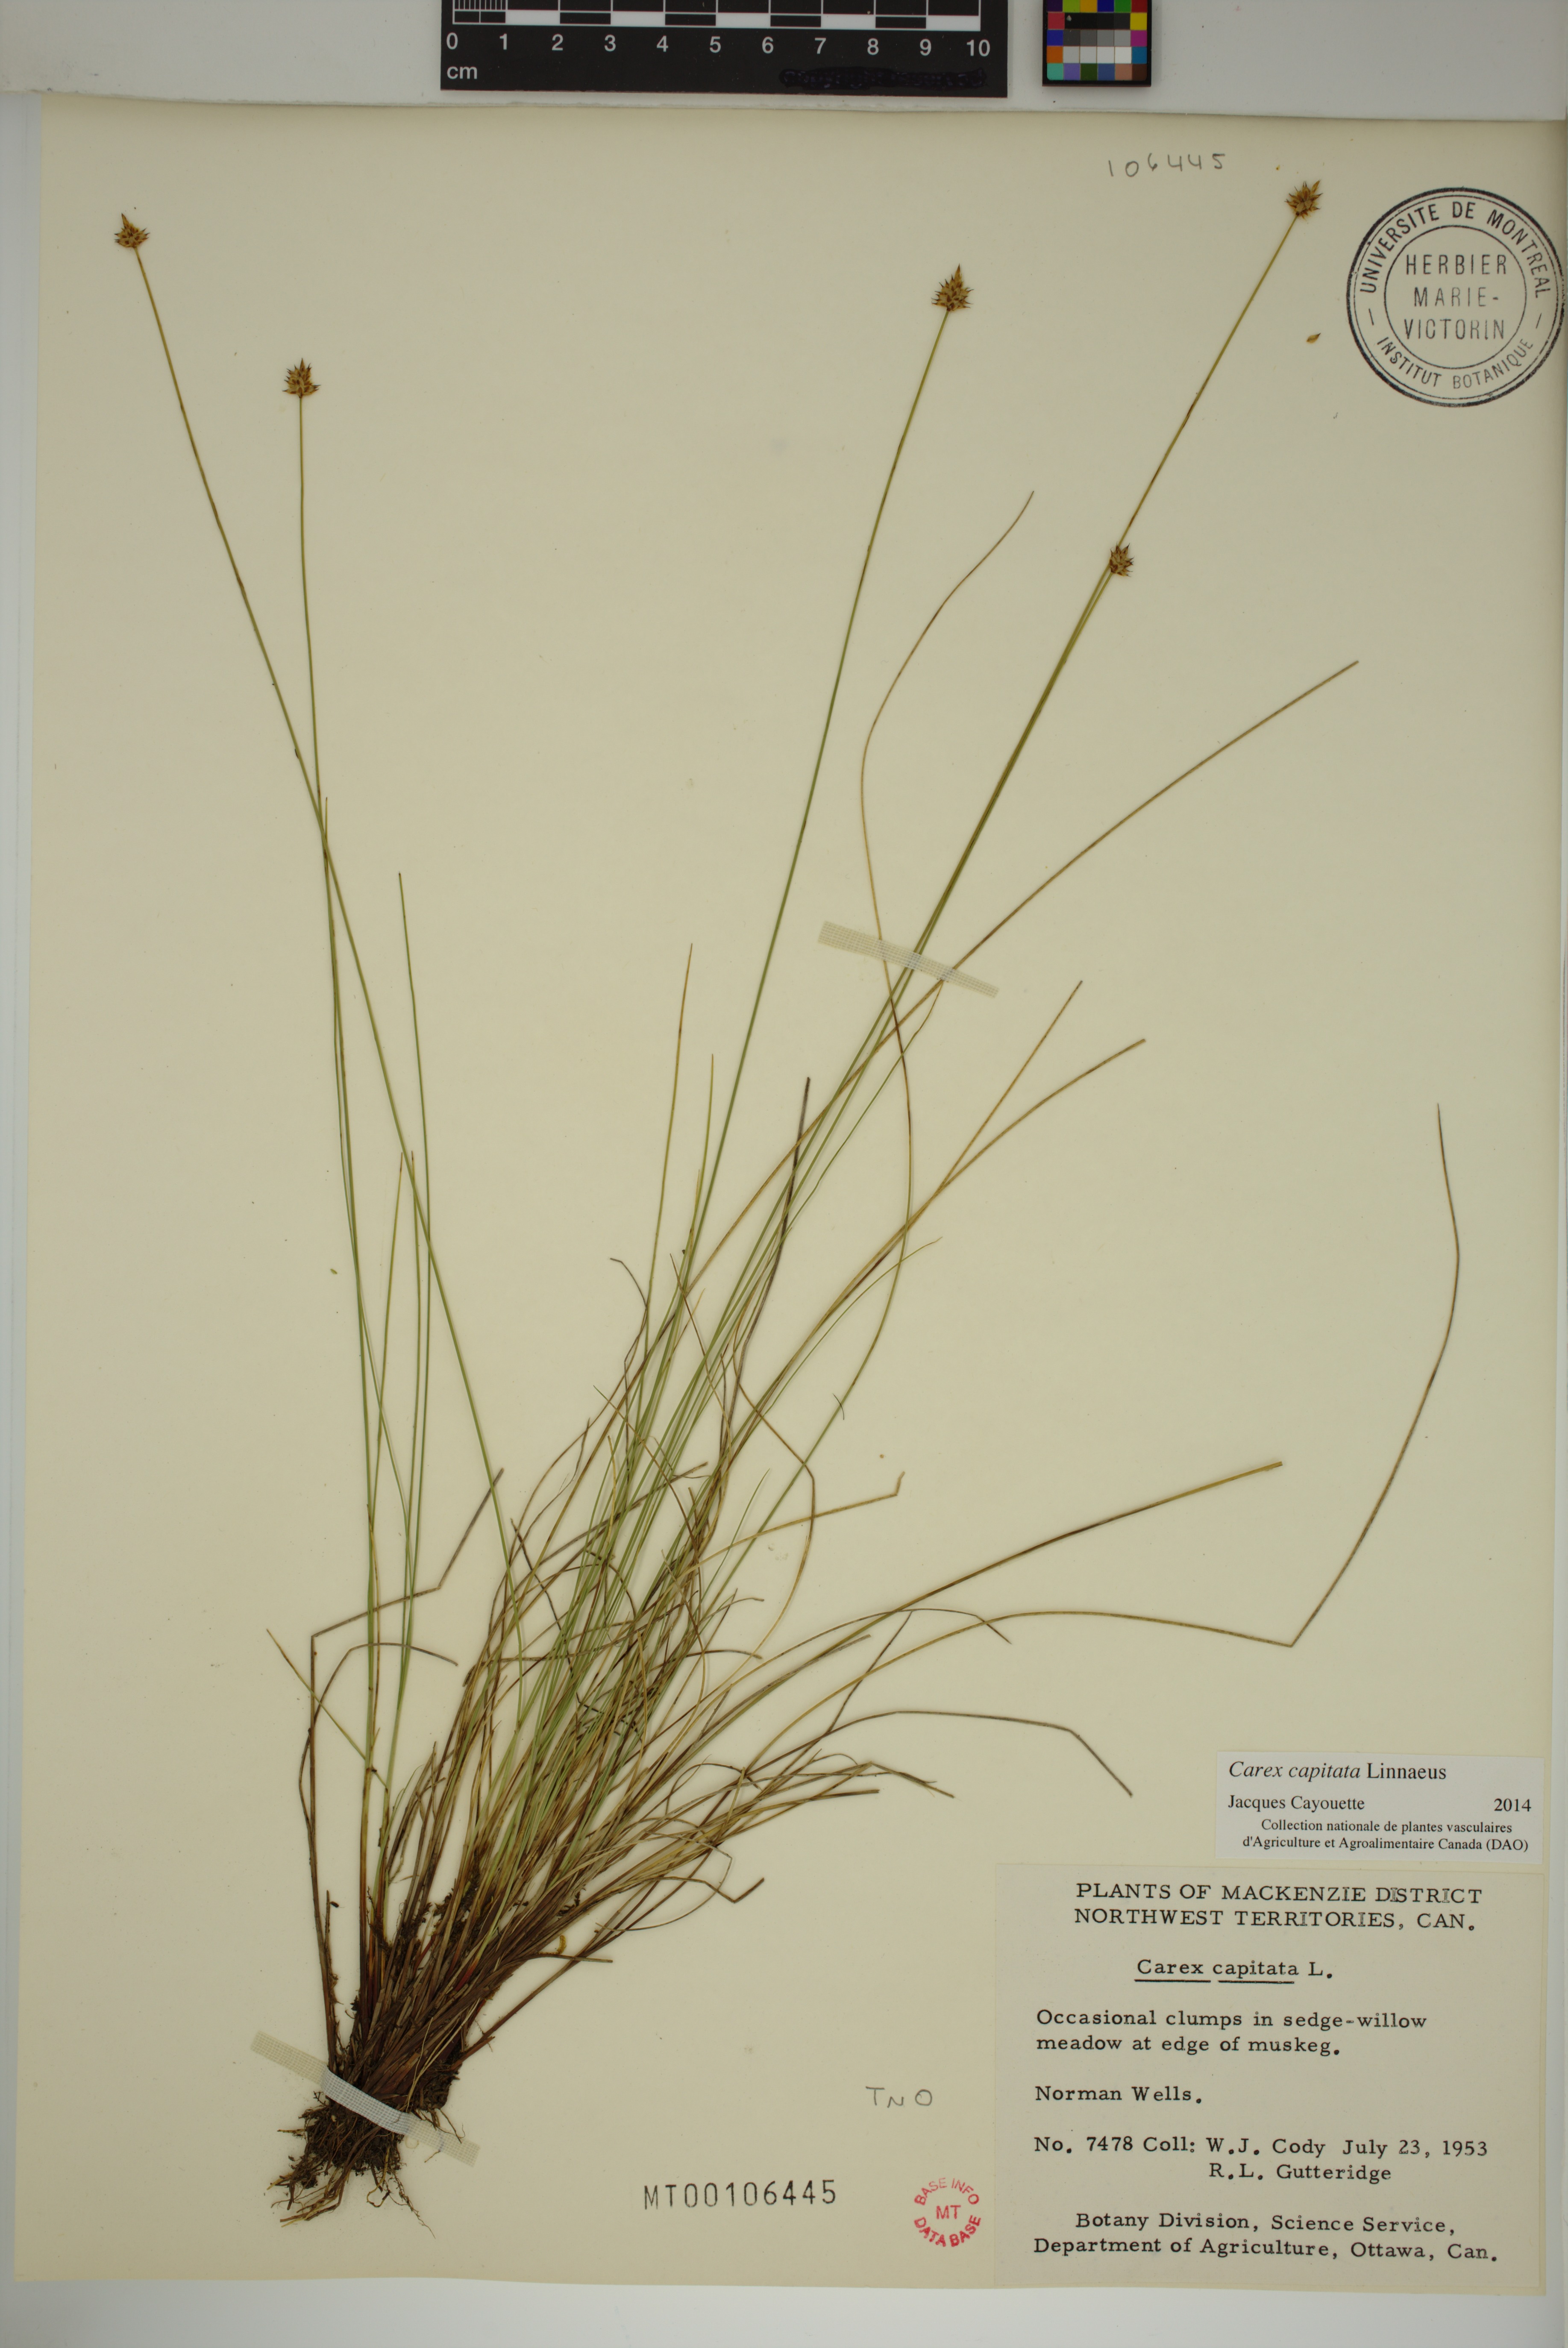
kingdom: Plantae
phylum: Tracheophyta
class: Liliopsida
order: Poales
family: Cyperaceae
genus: Carex
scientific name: Carex capitata
